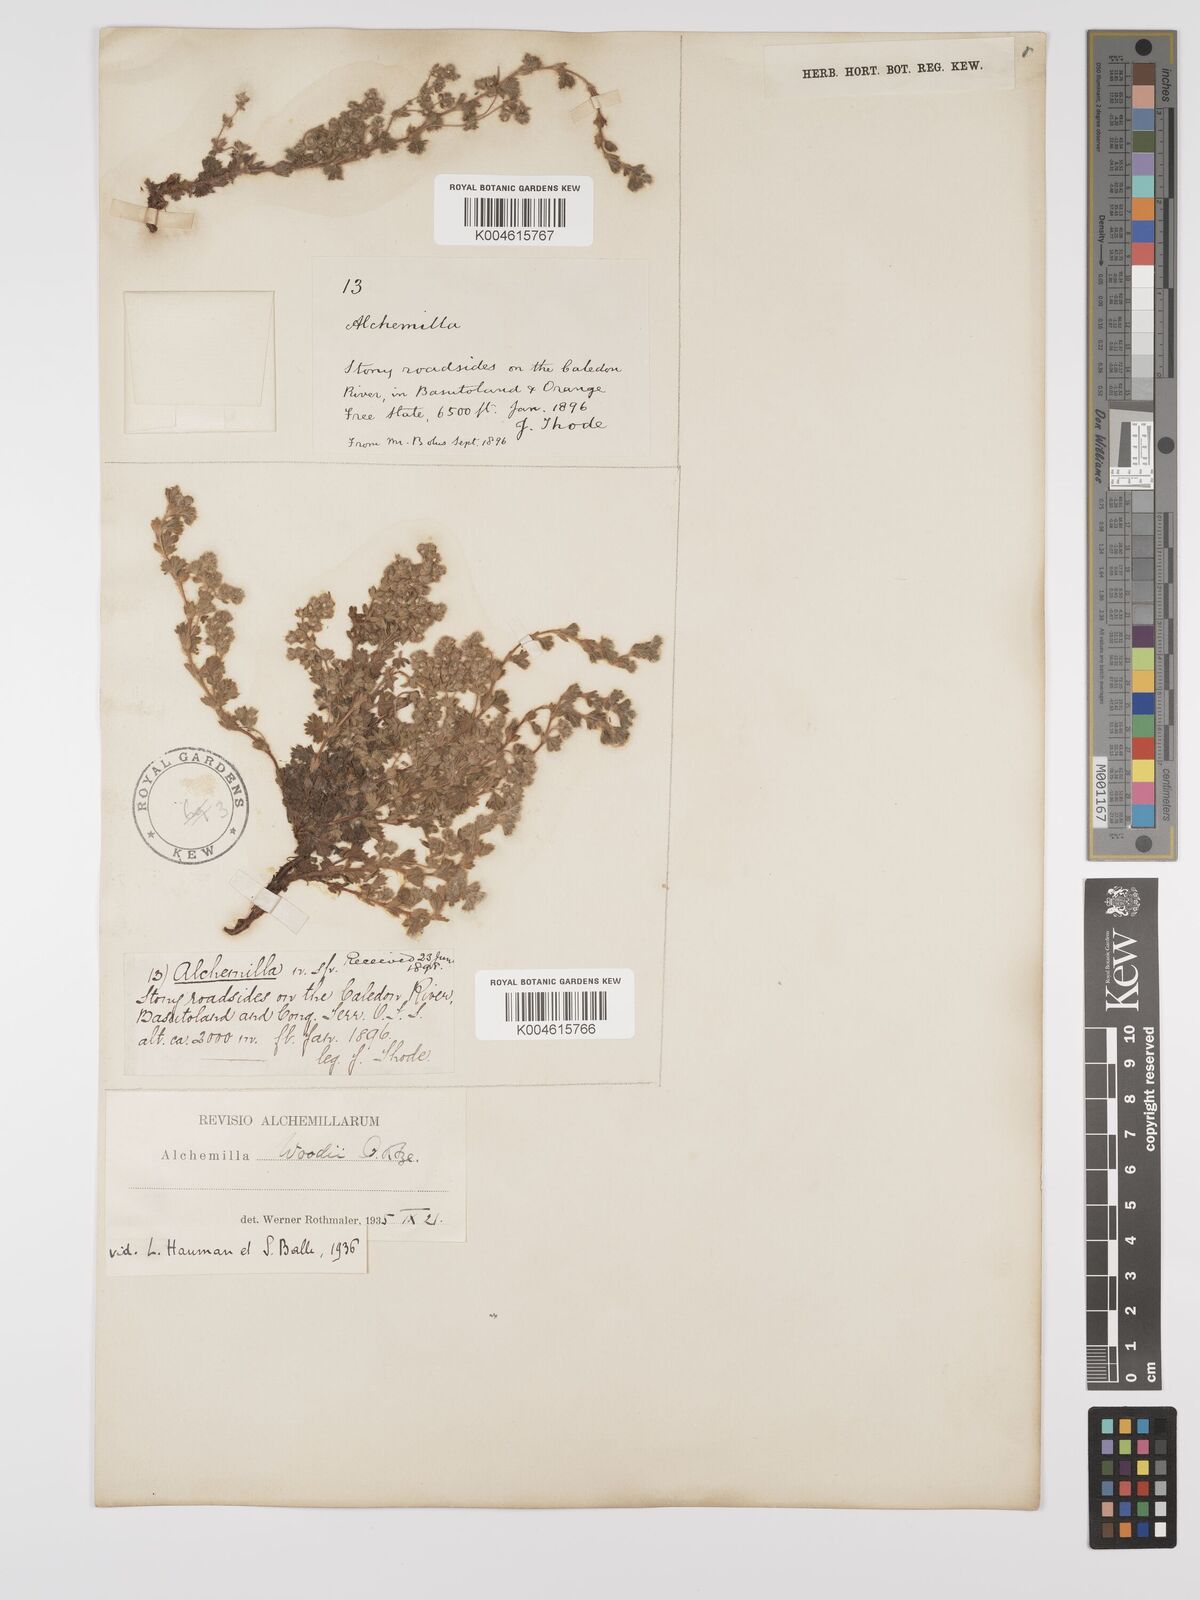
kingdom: Plantae
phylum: Tracheophyta
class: Magnoliopsida
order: Rosales
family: Rosaceae
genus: Alchemilla
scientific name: Alchemilla woodii
